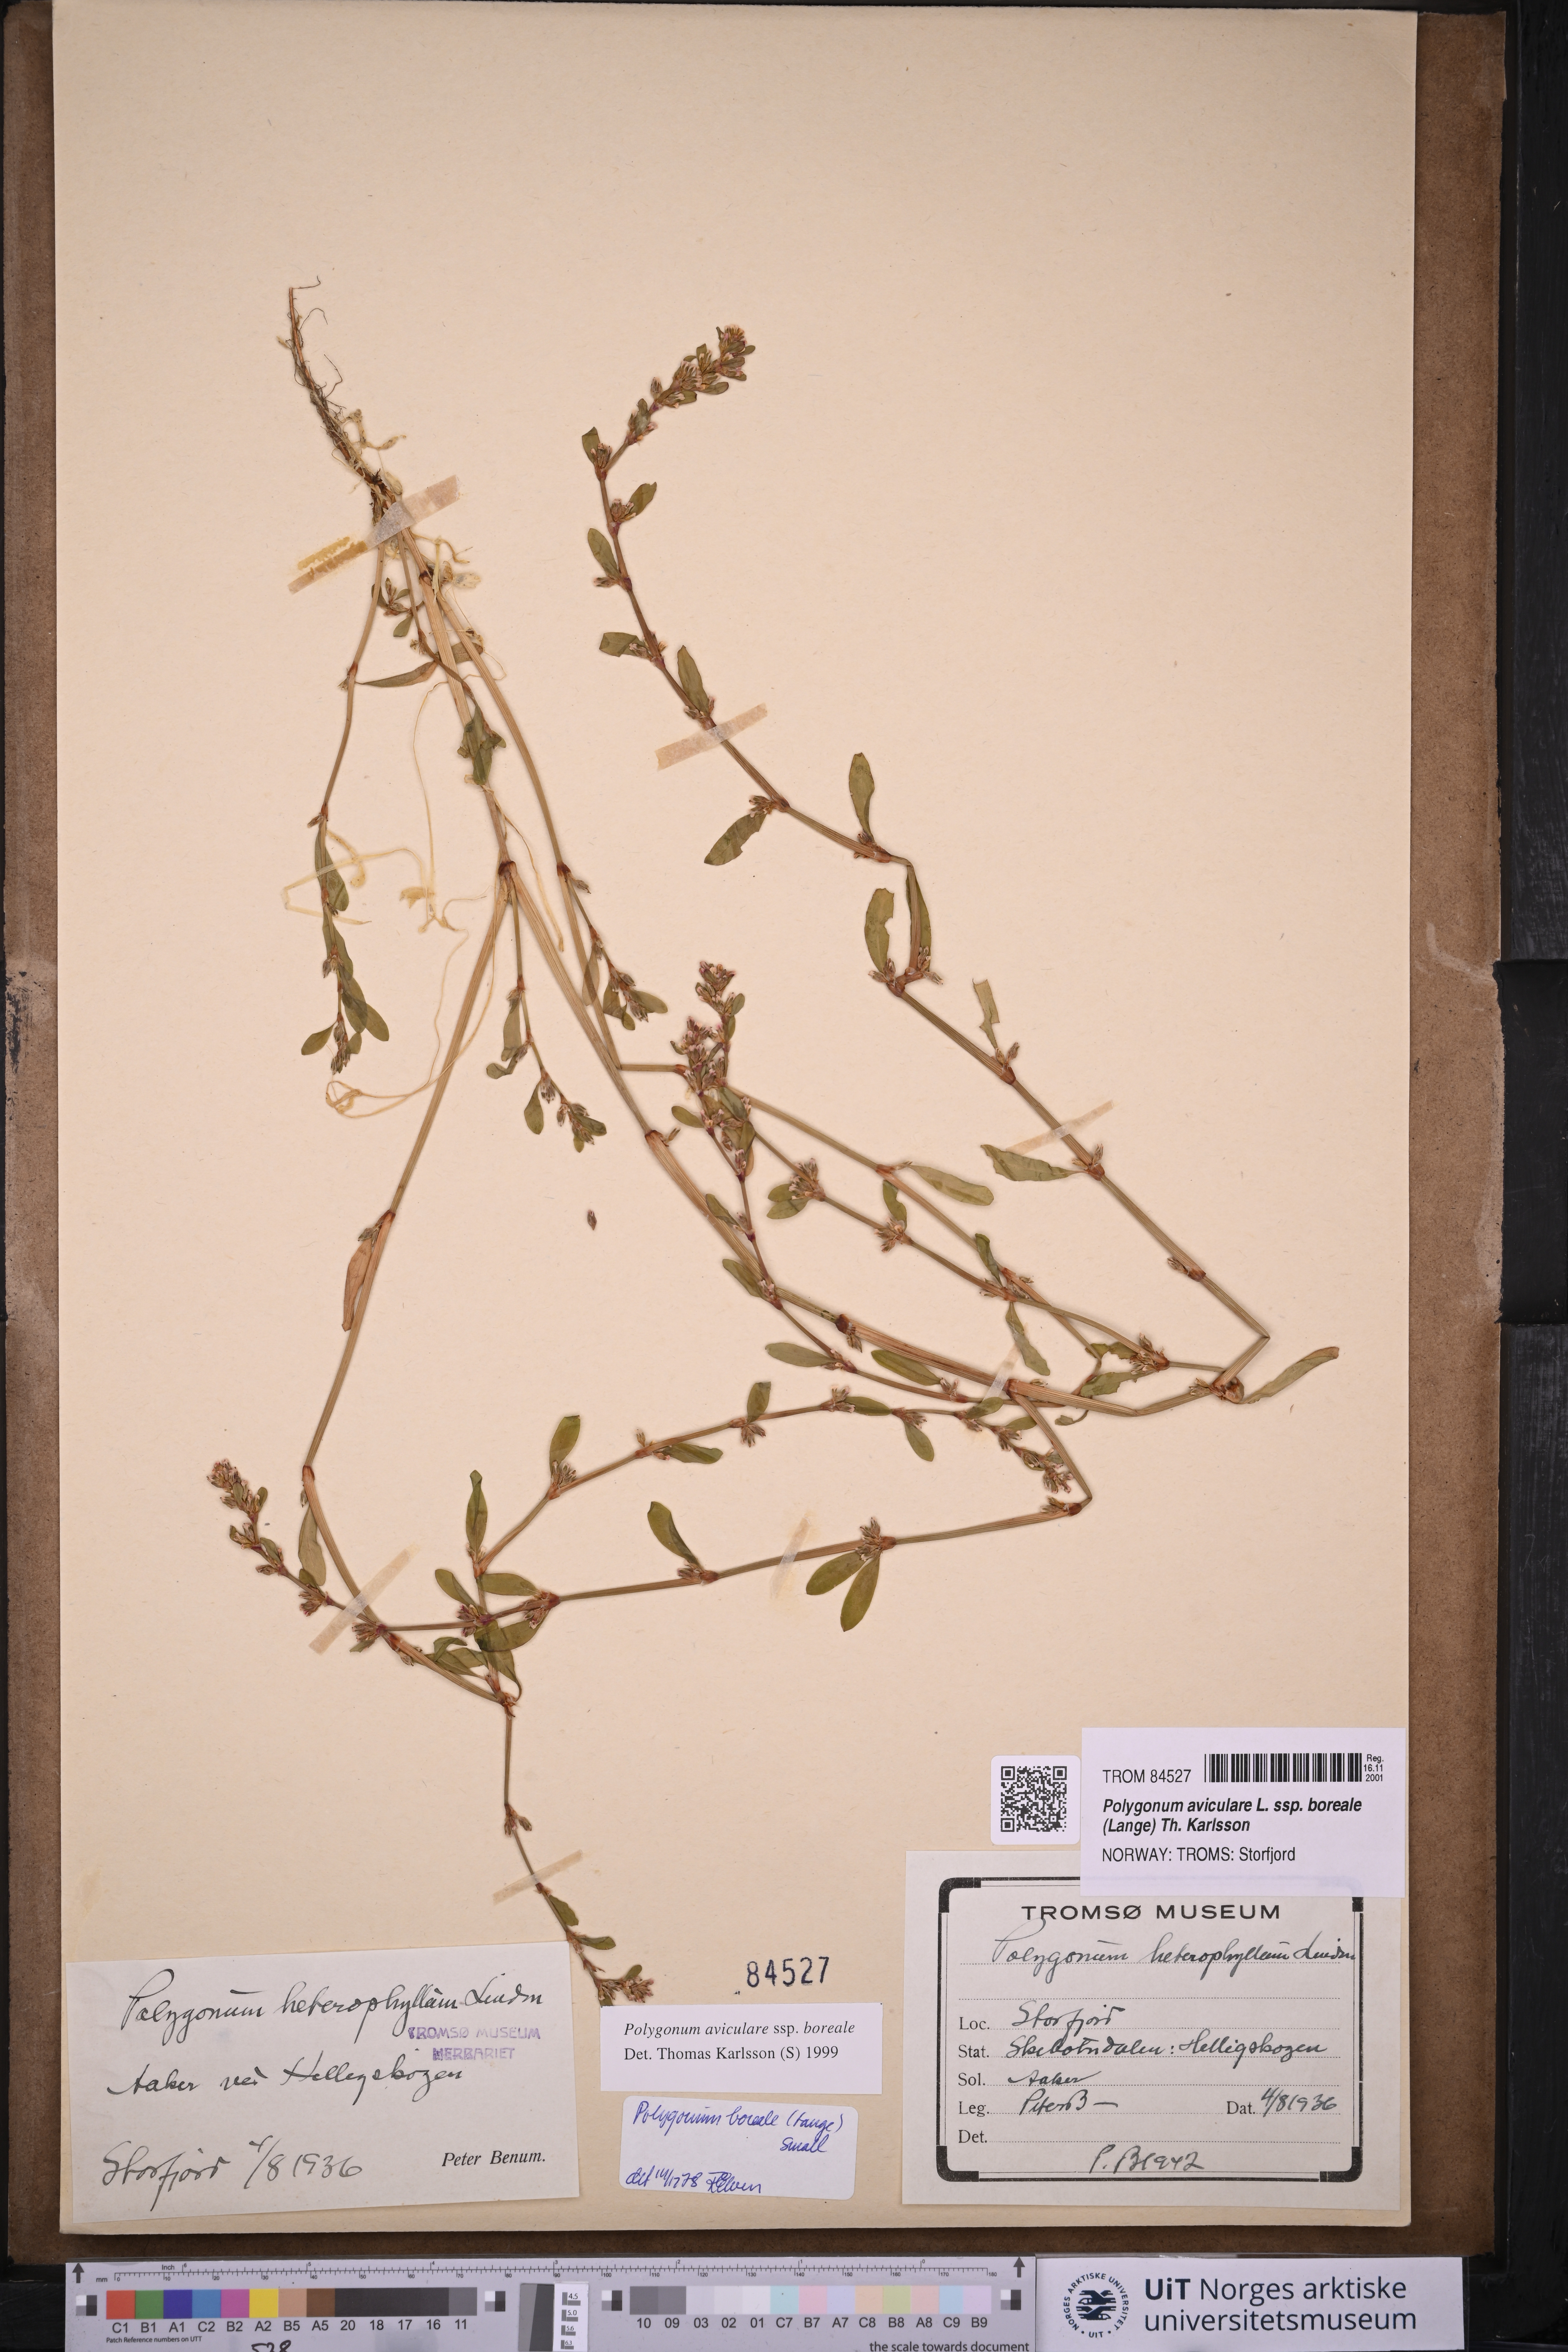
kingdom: Plantae
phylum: Tracheophyta
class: Magnoliopsida
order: Caryophyllales
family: Polygonaceae
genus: Polygonum
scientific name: Polygonum boreale
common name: Northern knotgrass
